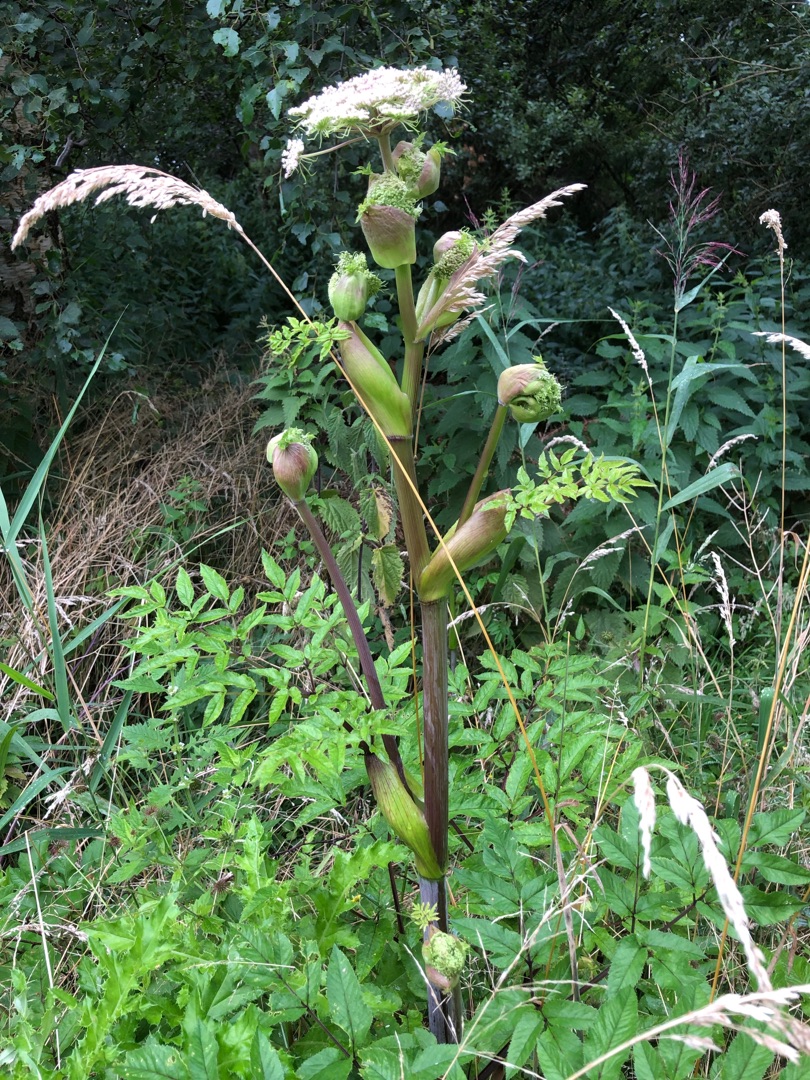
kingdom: Plantae
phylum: Tracheophyta
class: Magnoliopsida
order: Apiales
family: Apiaceae
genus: Angelica
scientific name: Angelica sylvestris
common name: Angelik
